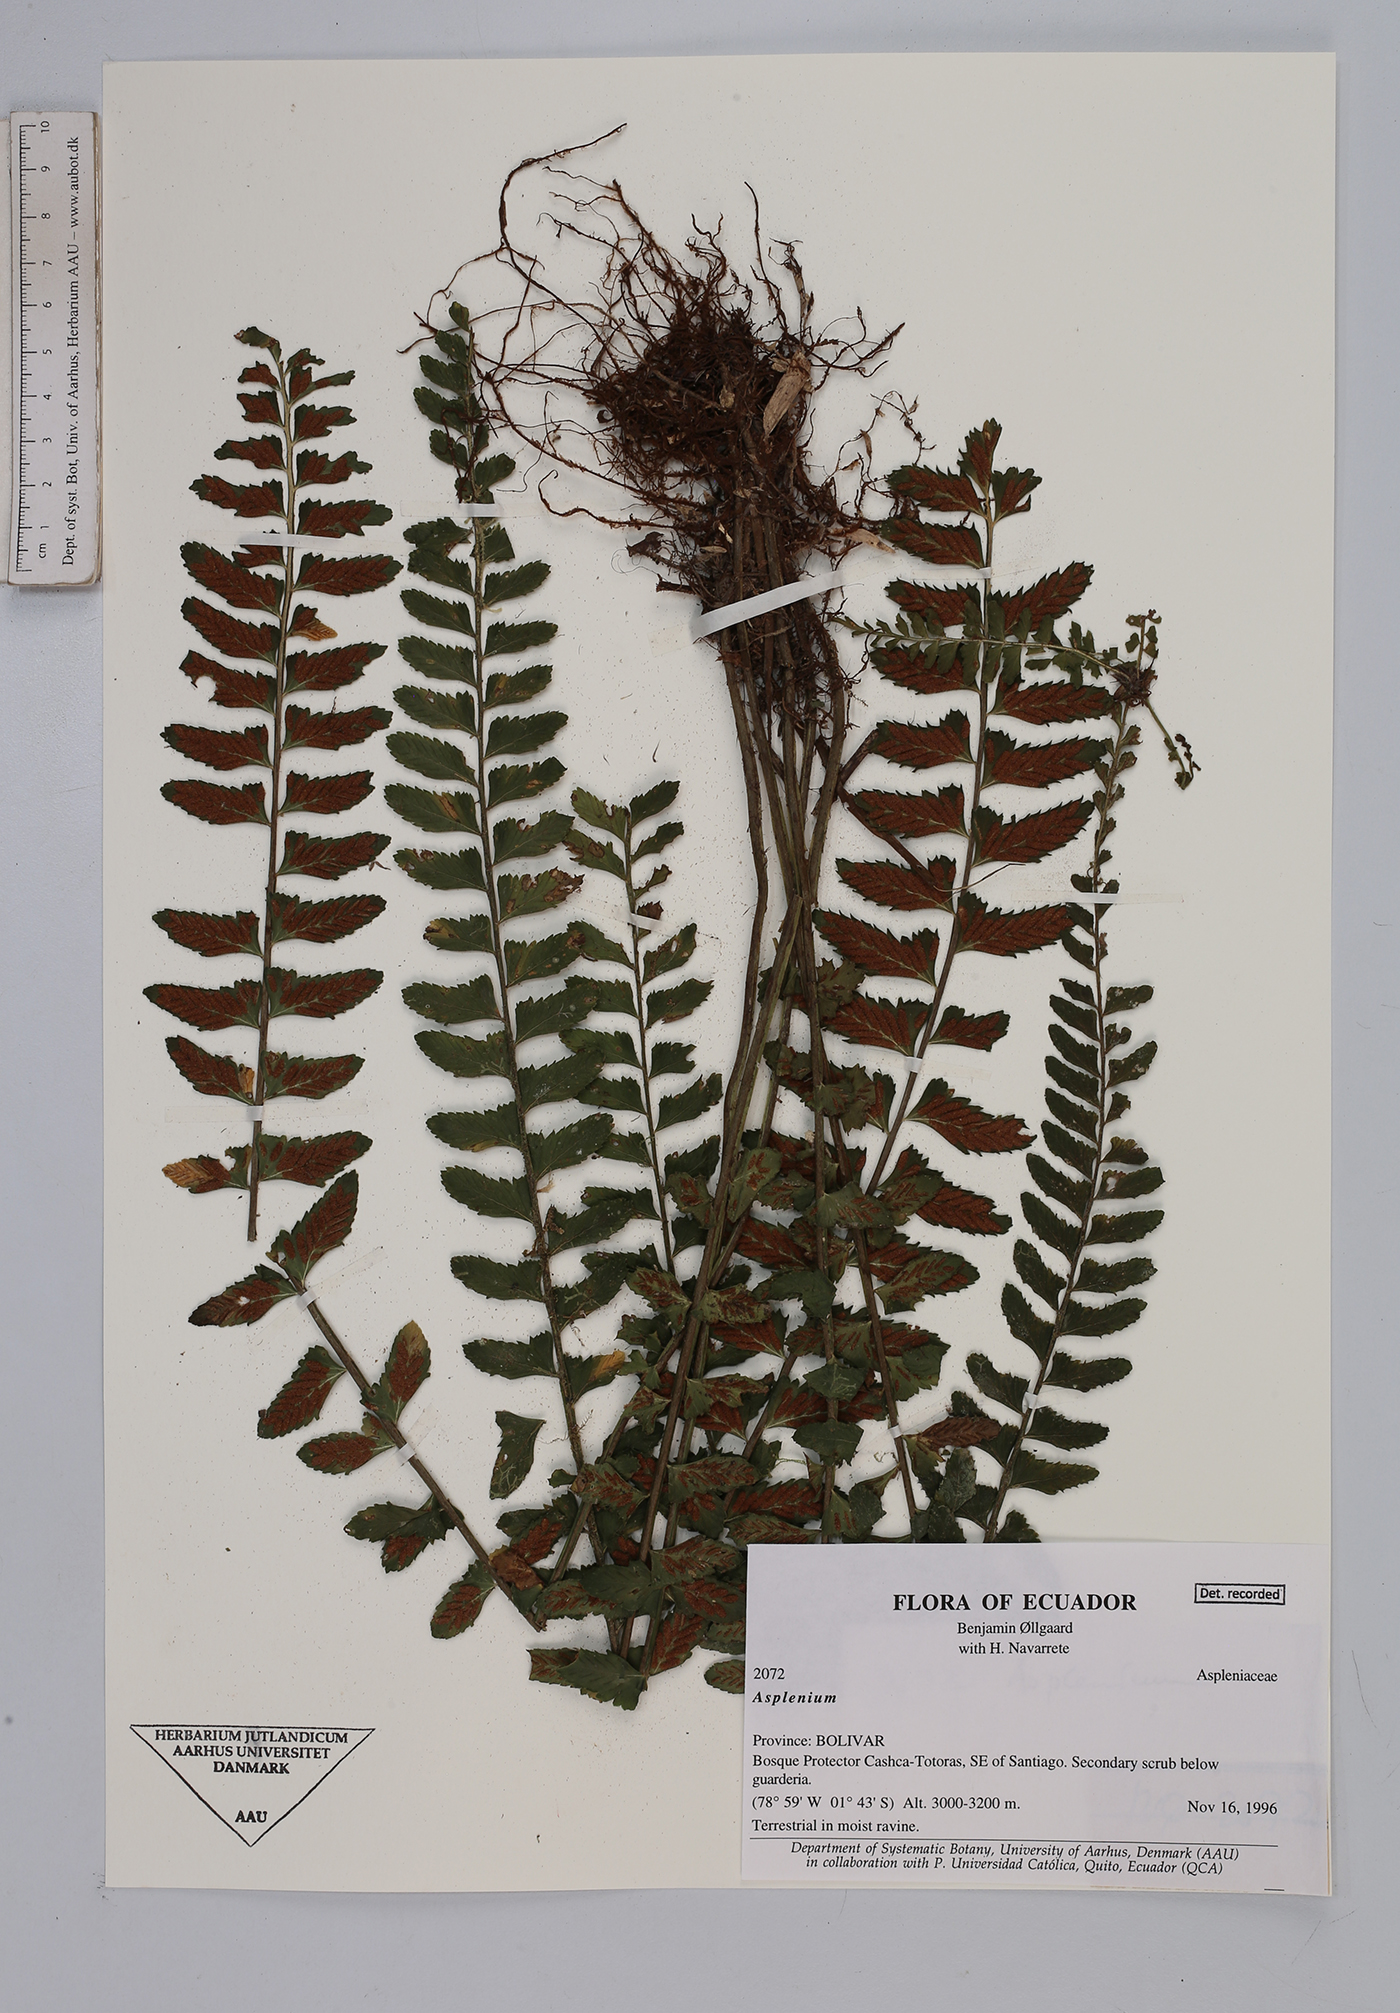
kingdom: Plantae
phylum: Tracheophyta
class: Polypodiopsida
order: Polypodiales
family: Aspleniaceae
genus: Asplenium
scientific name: Asplenium
